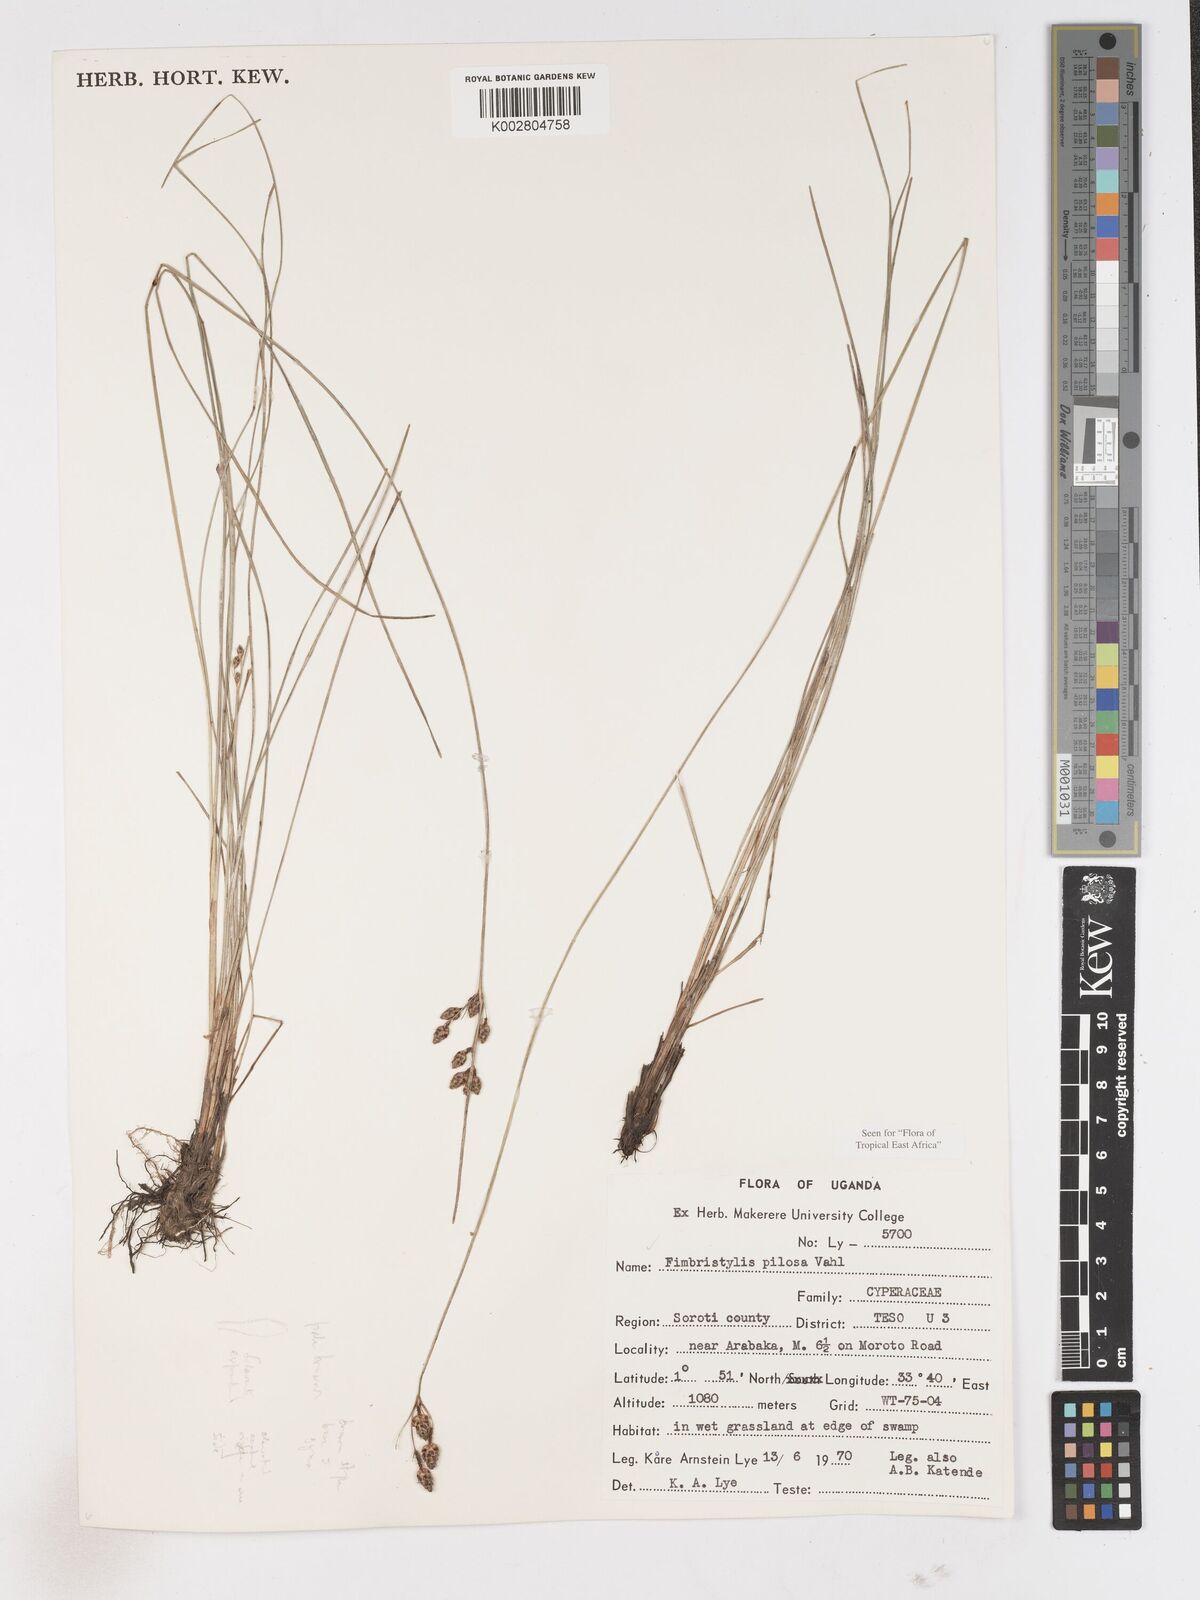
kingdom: Plantae
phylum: Tracheophyta
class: Liliopsida
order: Poales
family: Cyperaceae
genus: Fimbristylis
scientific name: Fimbristylis pilosa
